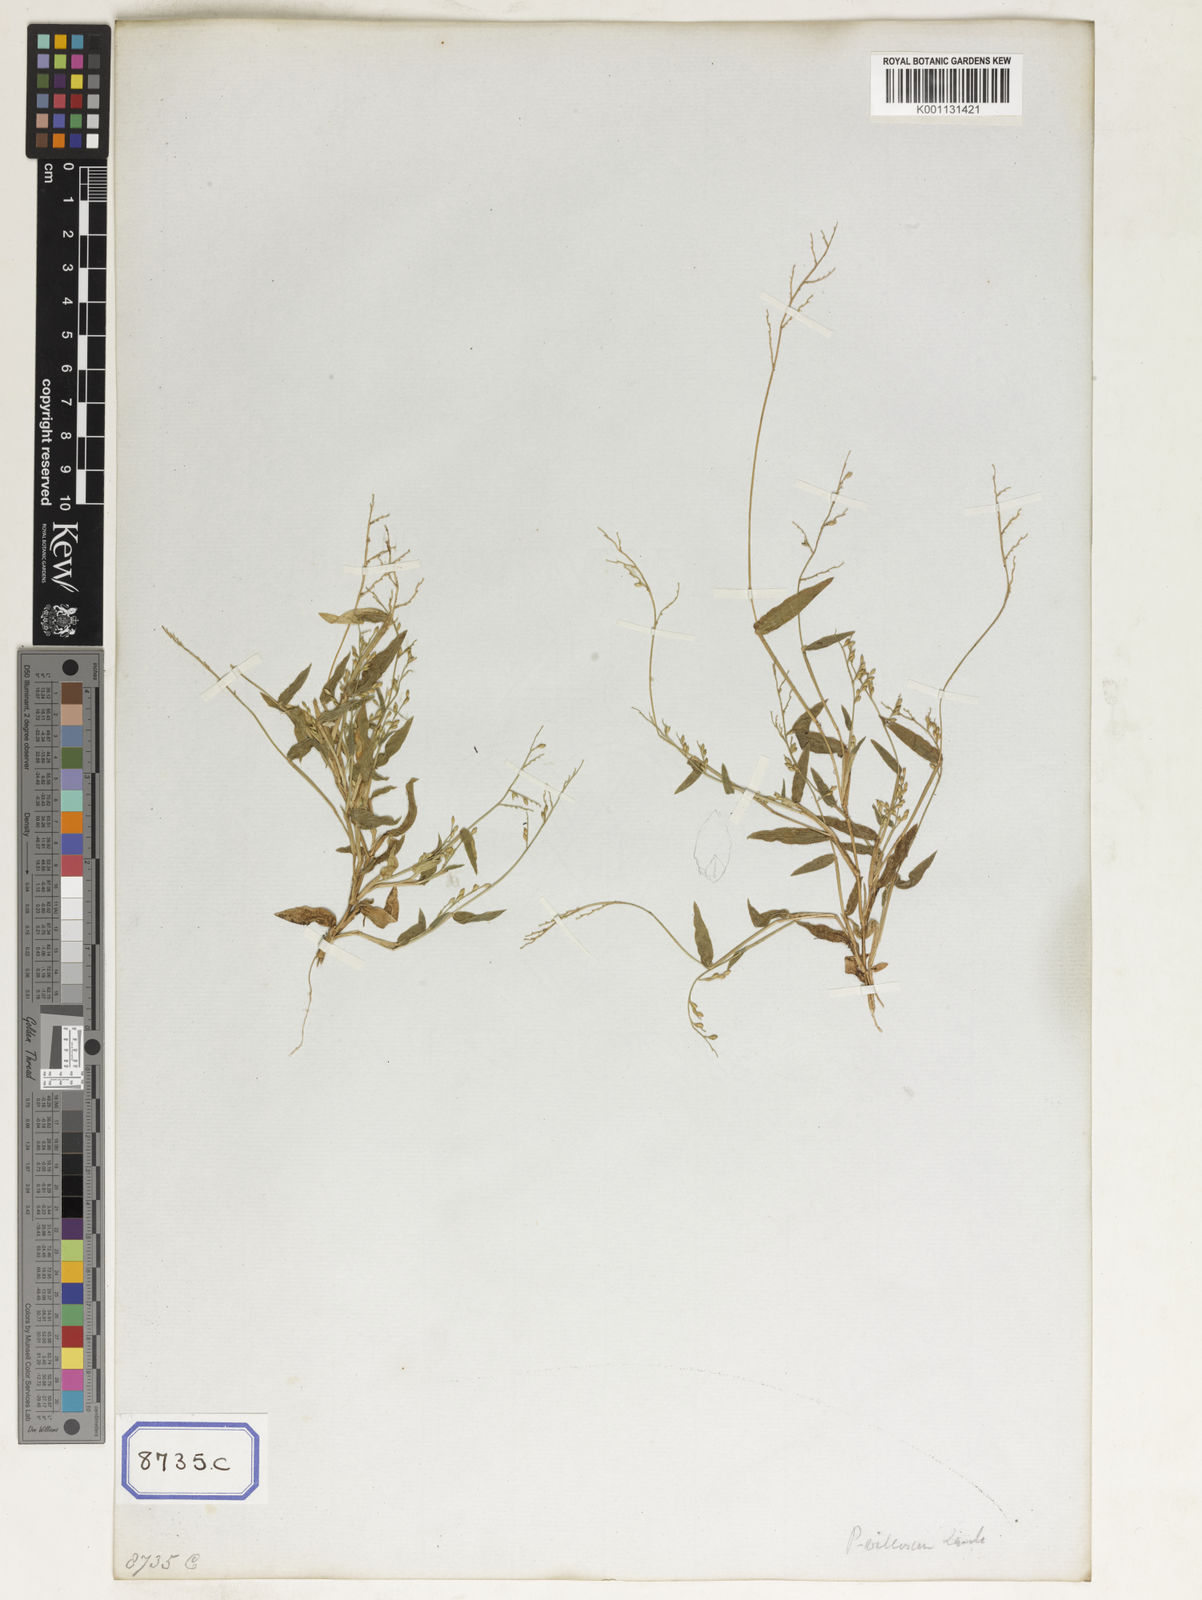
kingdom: Plantae
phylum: Tracheophyta
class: Liliopsida
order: Poales
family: Poaceae
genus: Panicum
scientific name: Panicum
